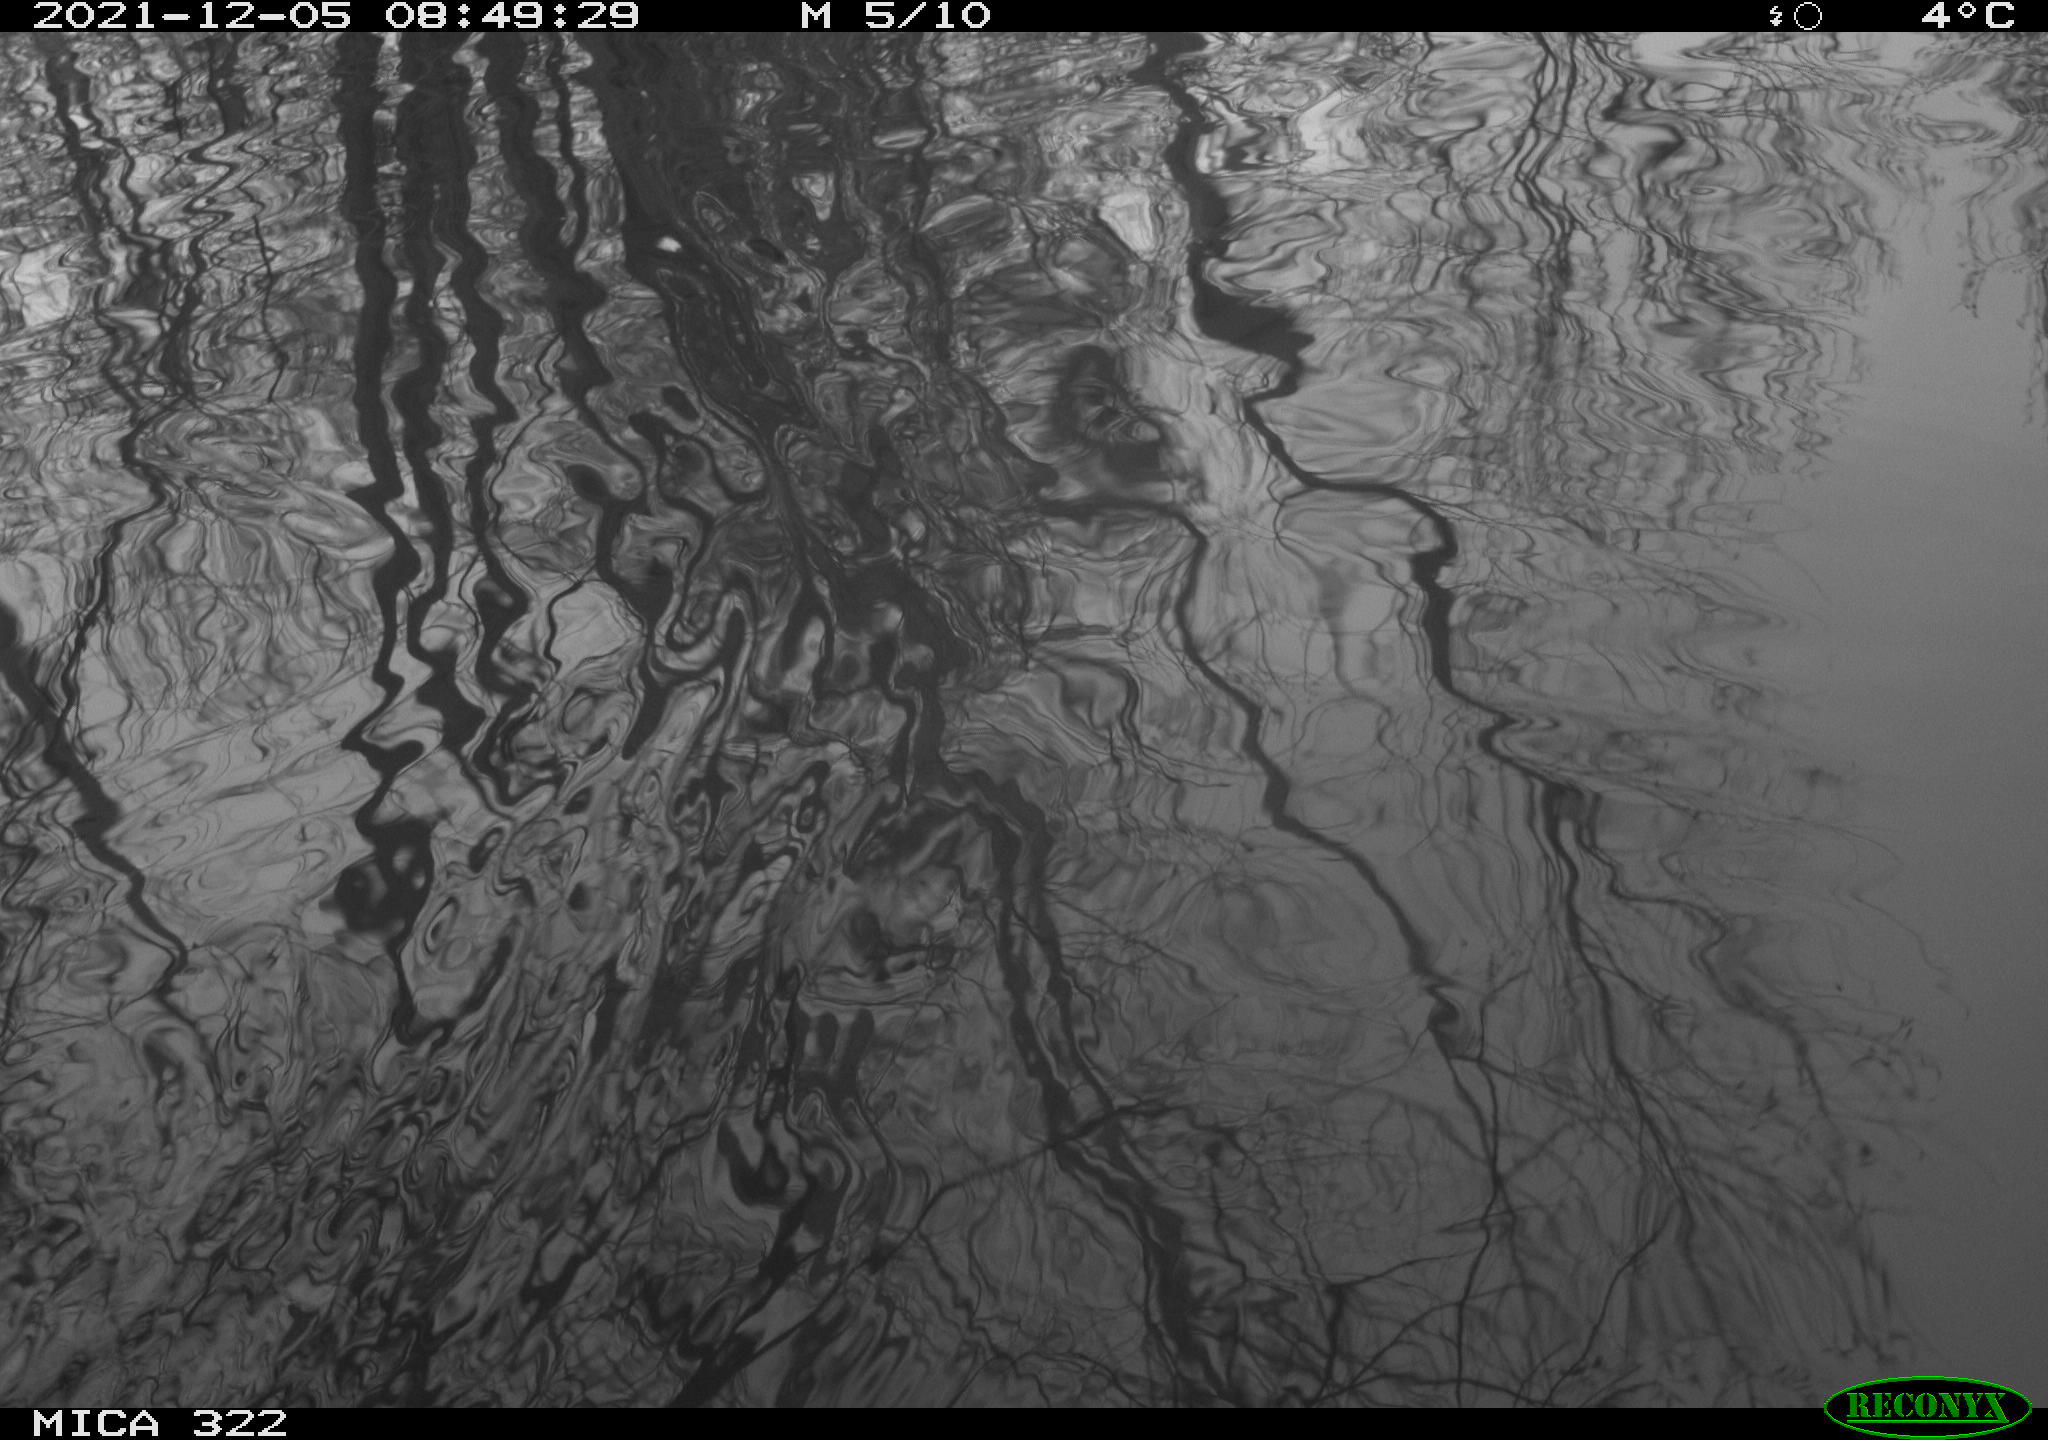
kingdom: Animalia
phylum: Chordata
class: Aves
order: Gruiformes
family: Rallidae
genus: Gallinula
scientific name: Gallinula chloropus
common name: Common moorhen
